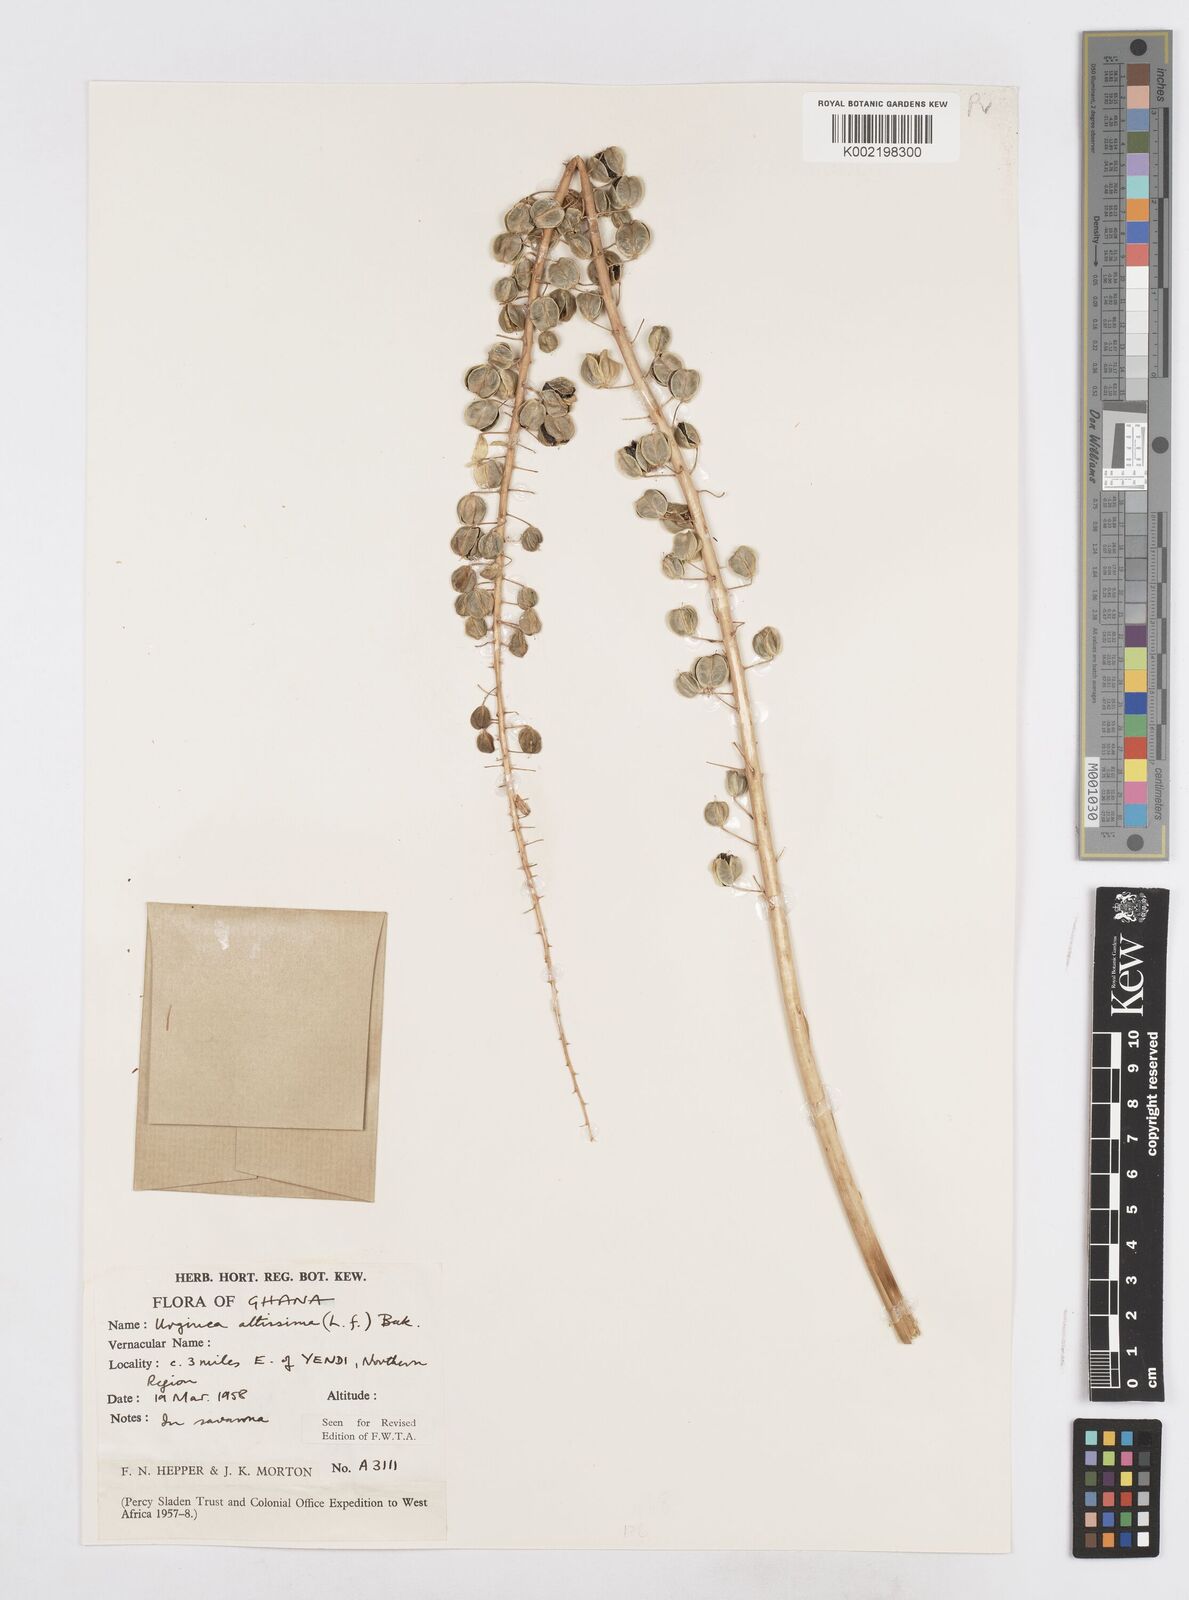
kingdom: Plantae
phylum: Tracheophyta
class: Liliopsida
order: Asparagales
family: Asparagaceae
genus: Drimia
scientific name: Drimia altissima
